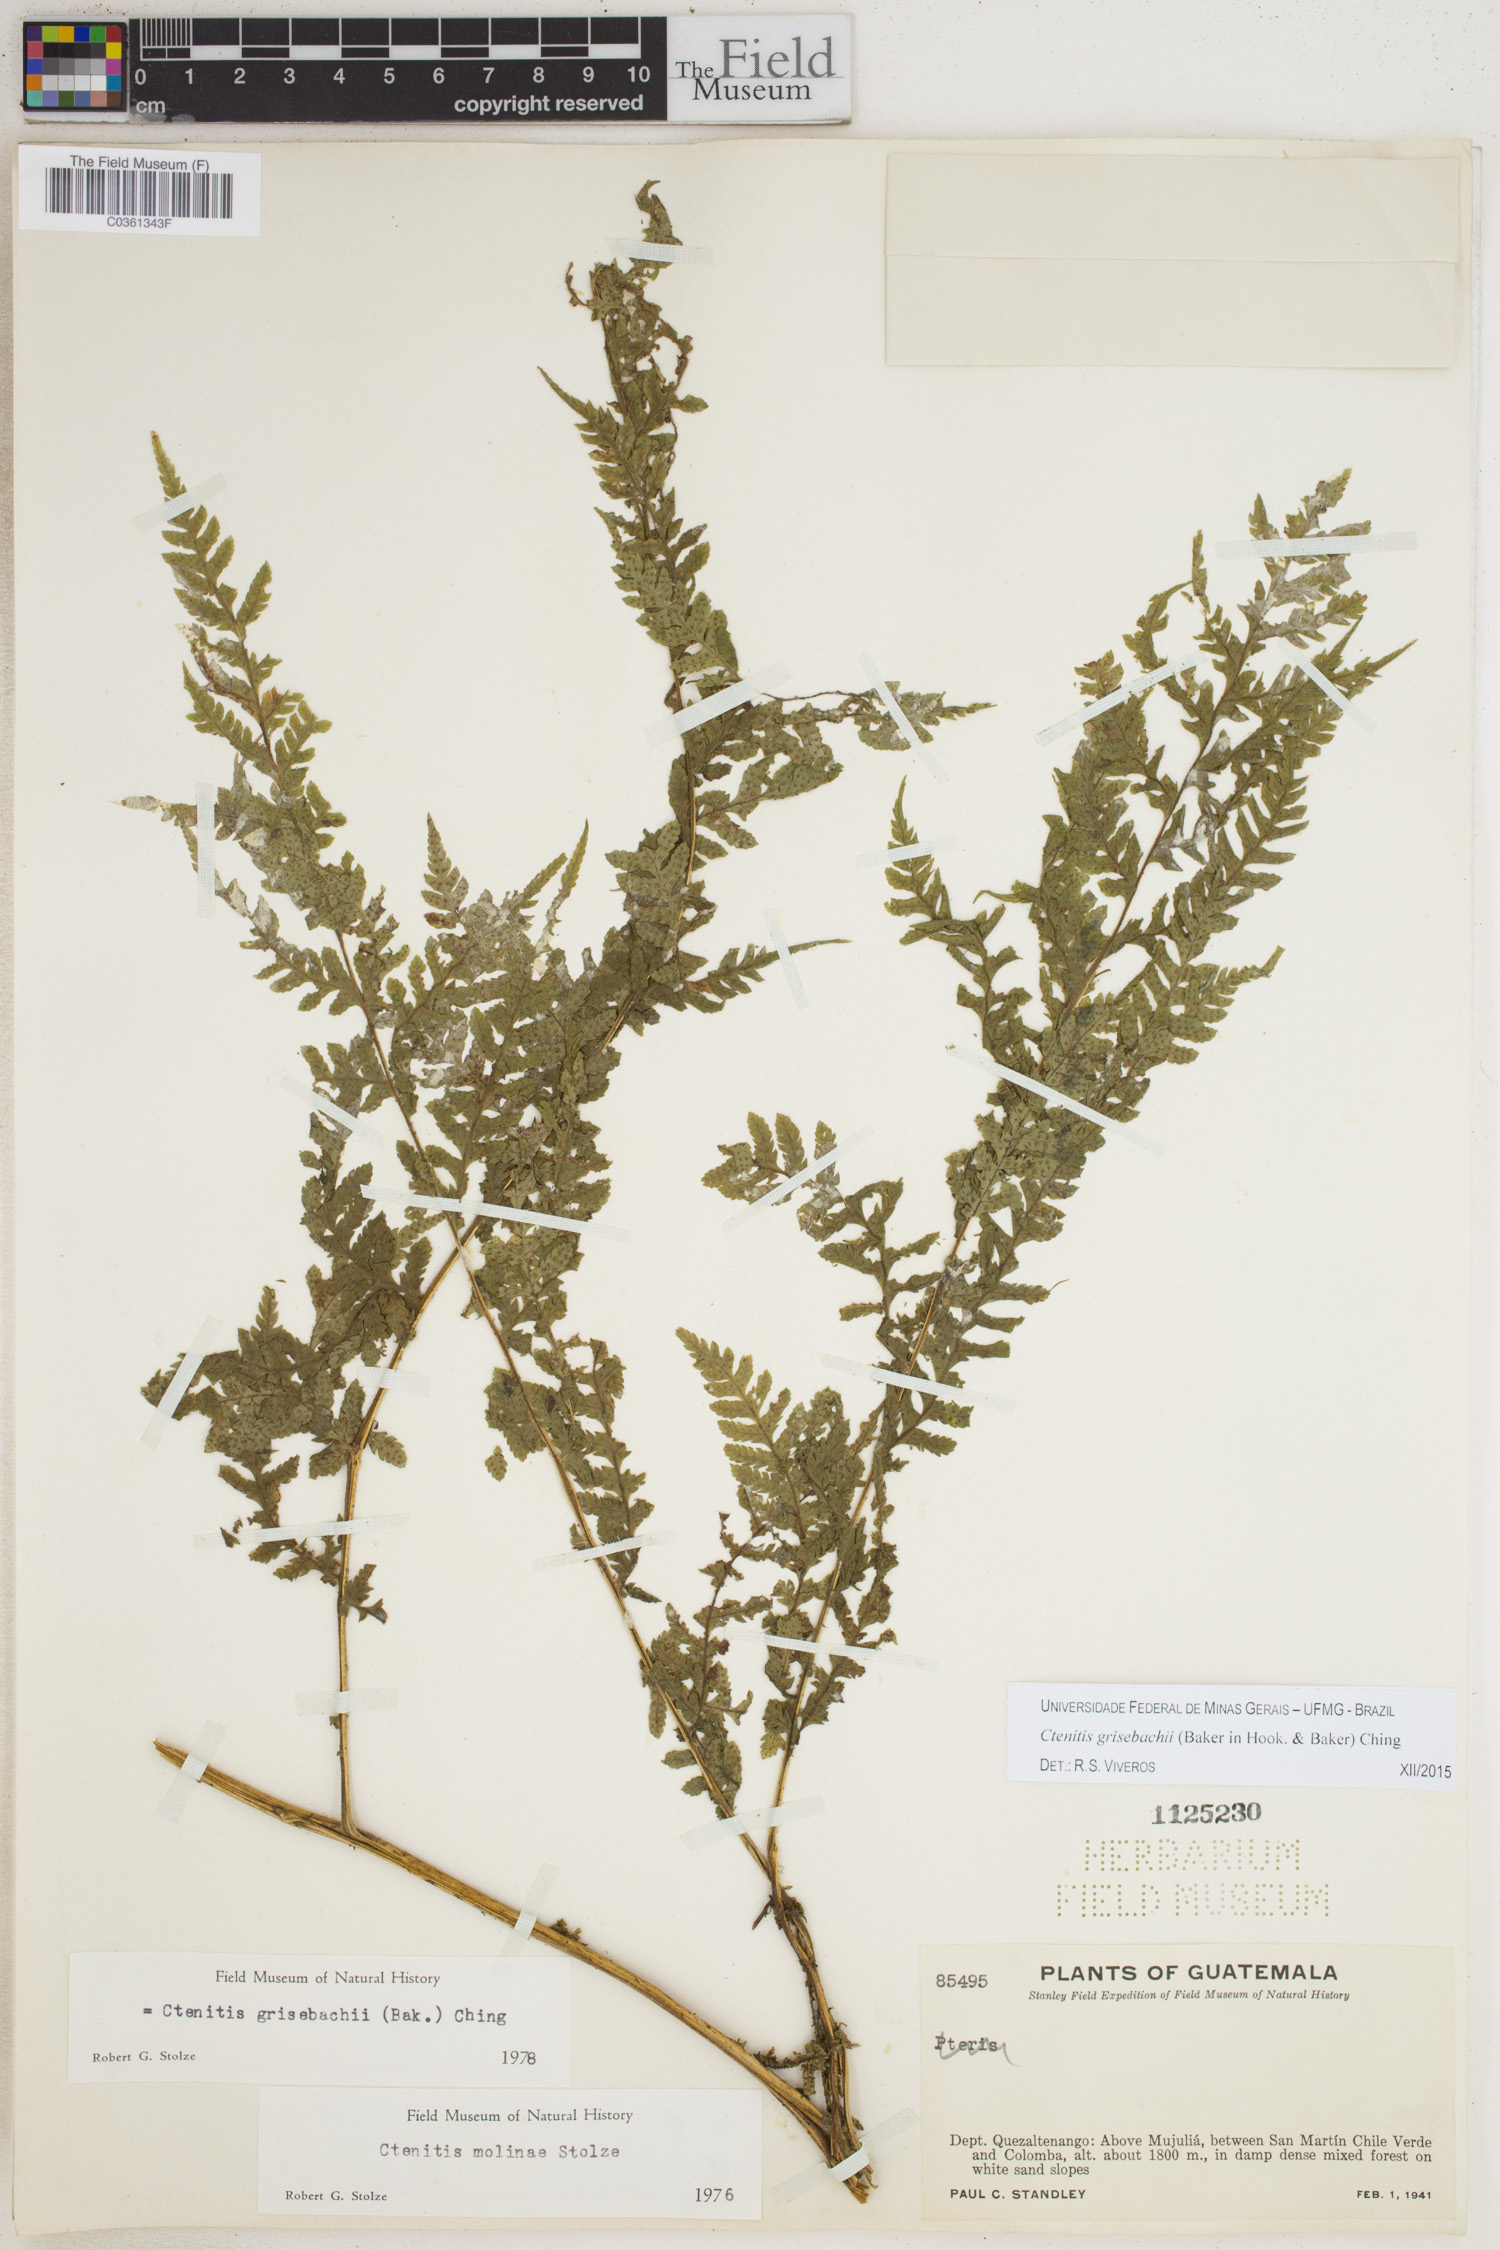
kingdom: Plantae
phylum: Tracheophyta
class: Polypodiopsida
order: Polypodiales
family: Dryopteridaceae
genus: Ctenitis
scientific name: Ctenitis grisebachii
